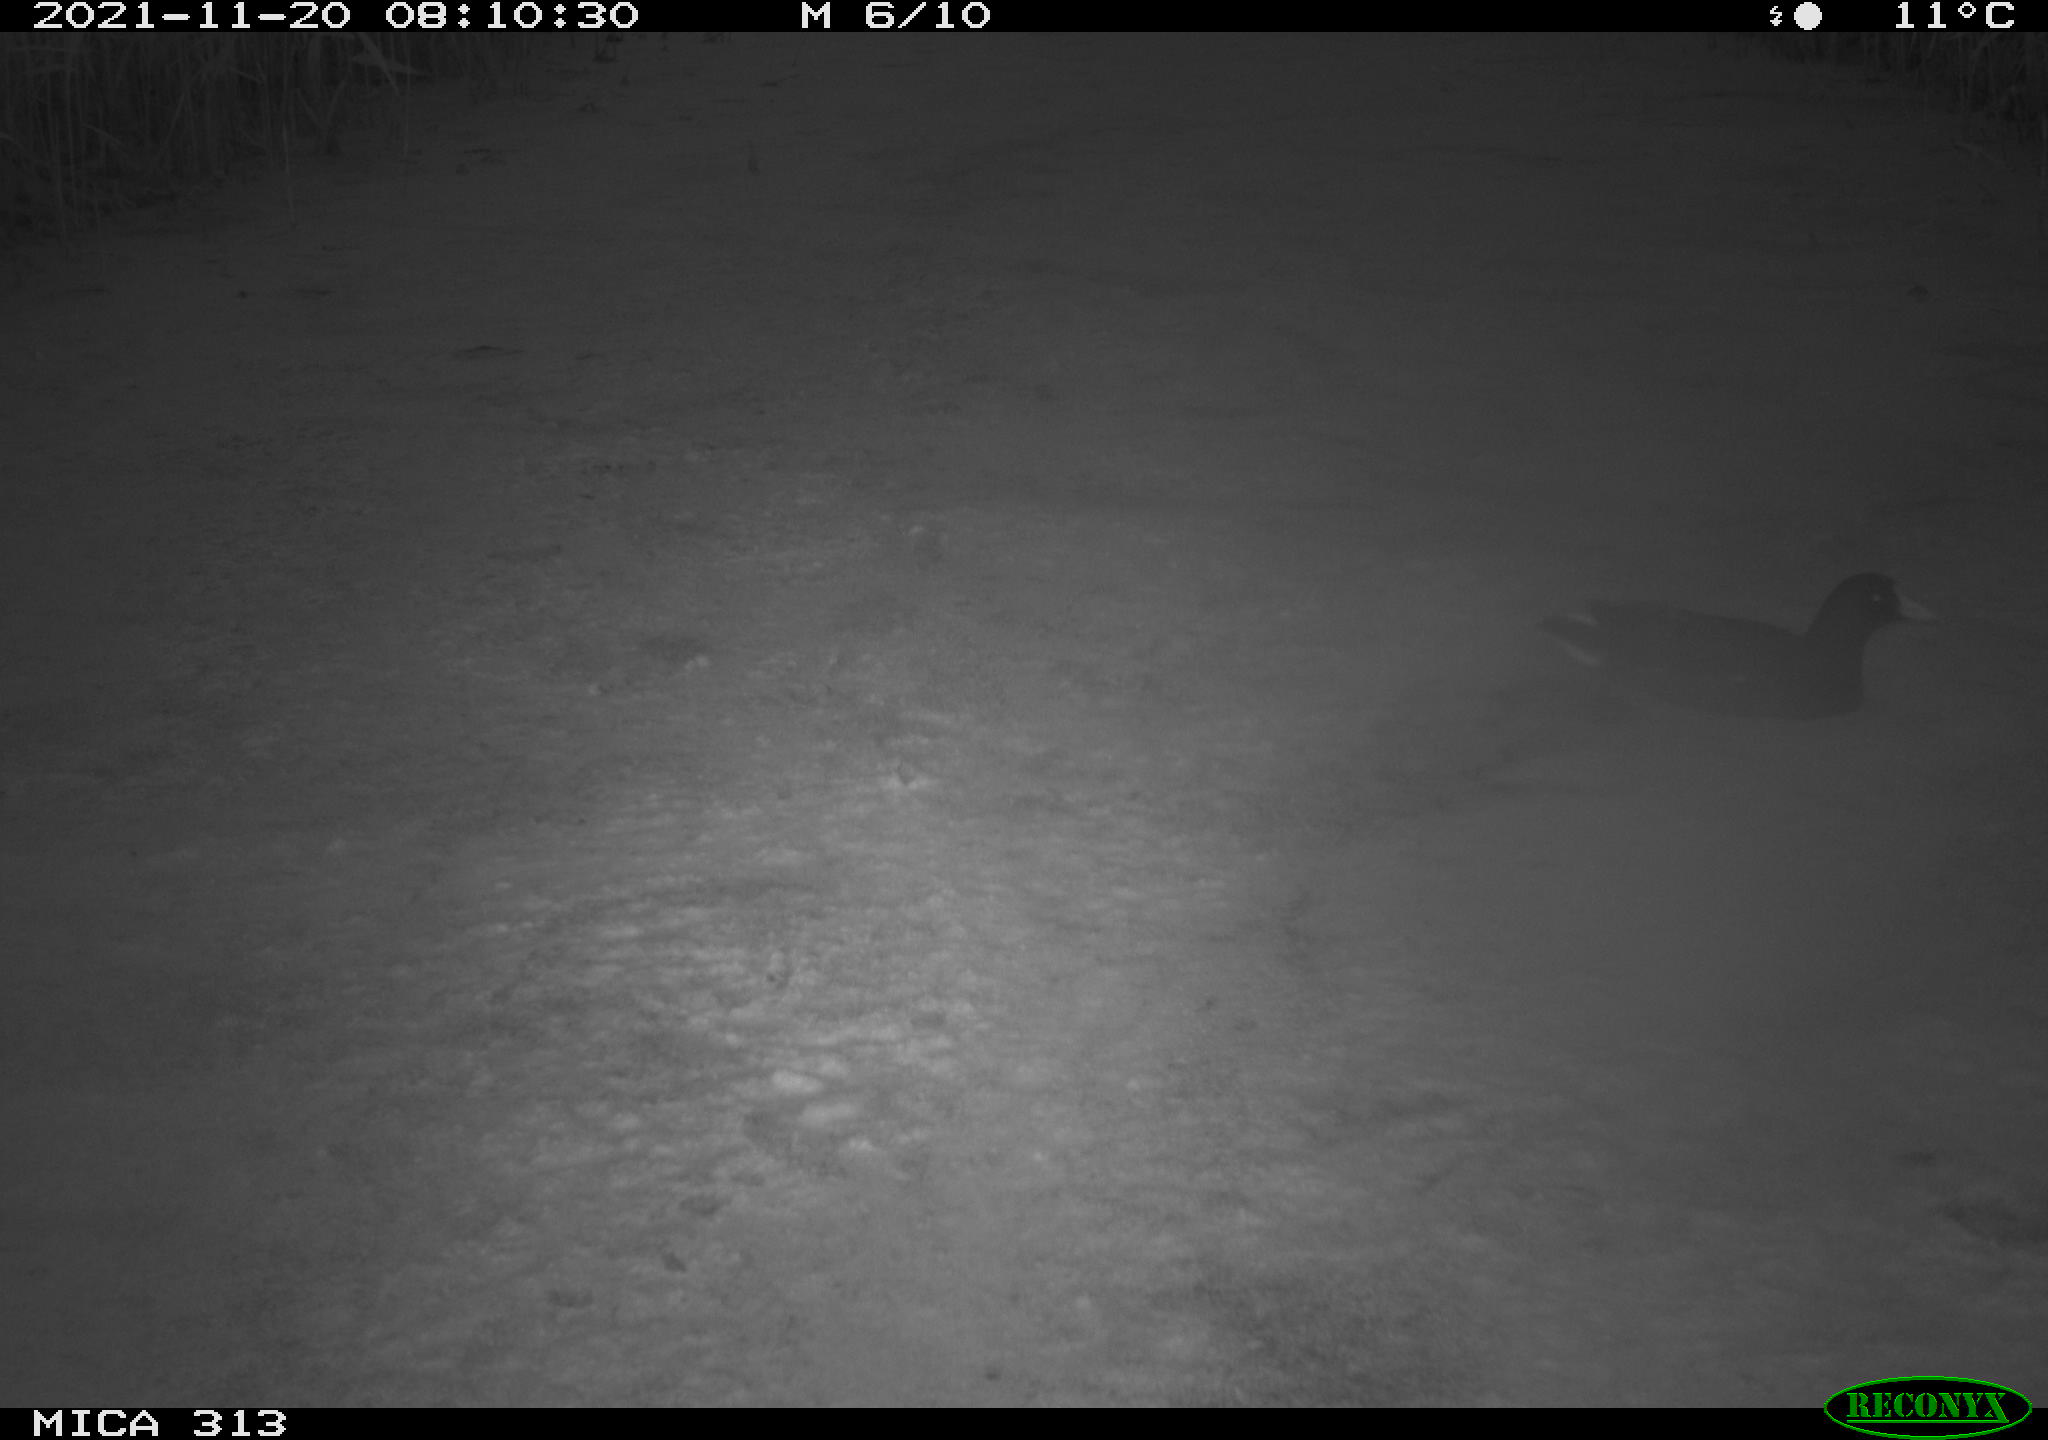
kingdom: Animalia
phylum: Chordata
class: Aves
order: Gruiformes
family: Rallidae
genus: Gallinula
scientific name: Gallinula chloropus
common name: Common moorhen
